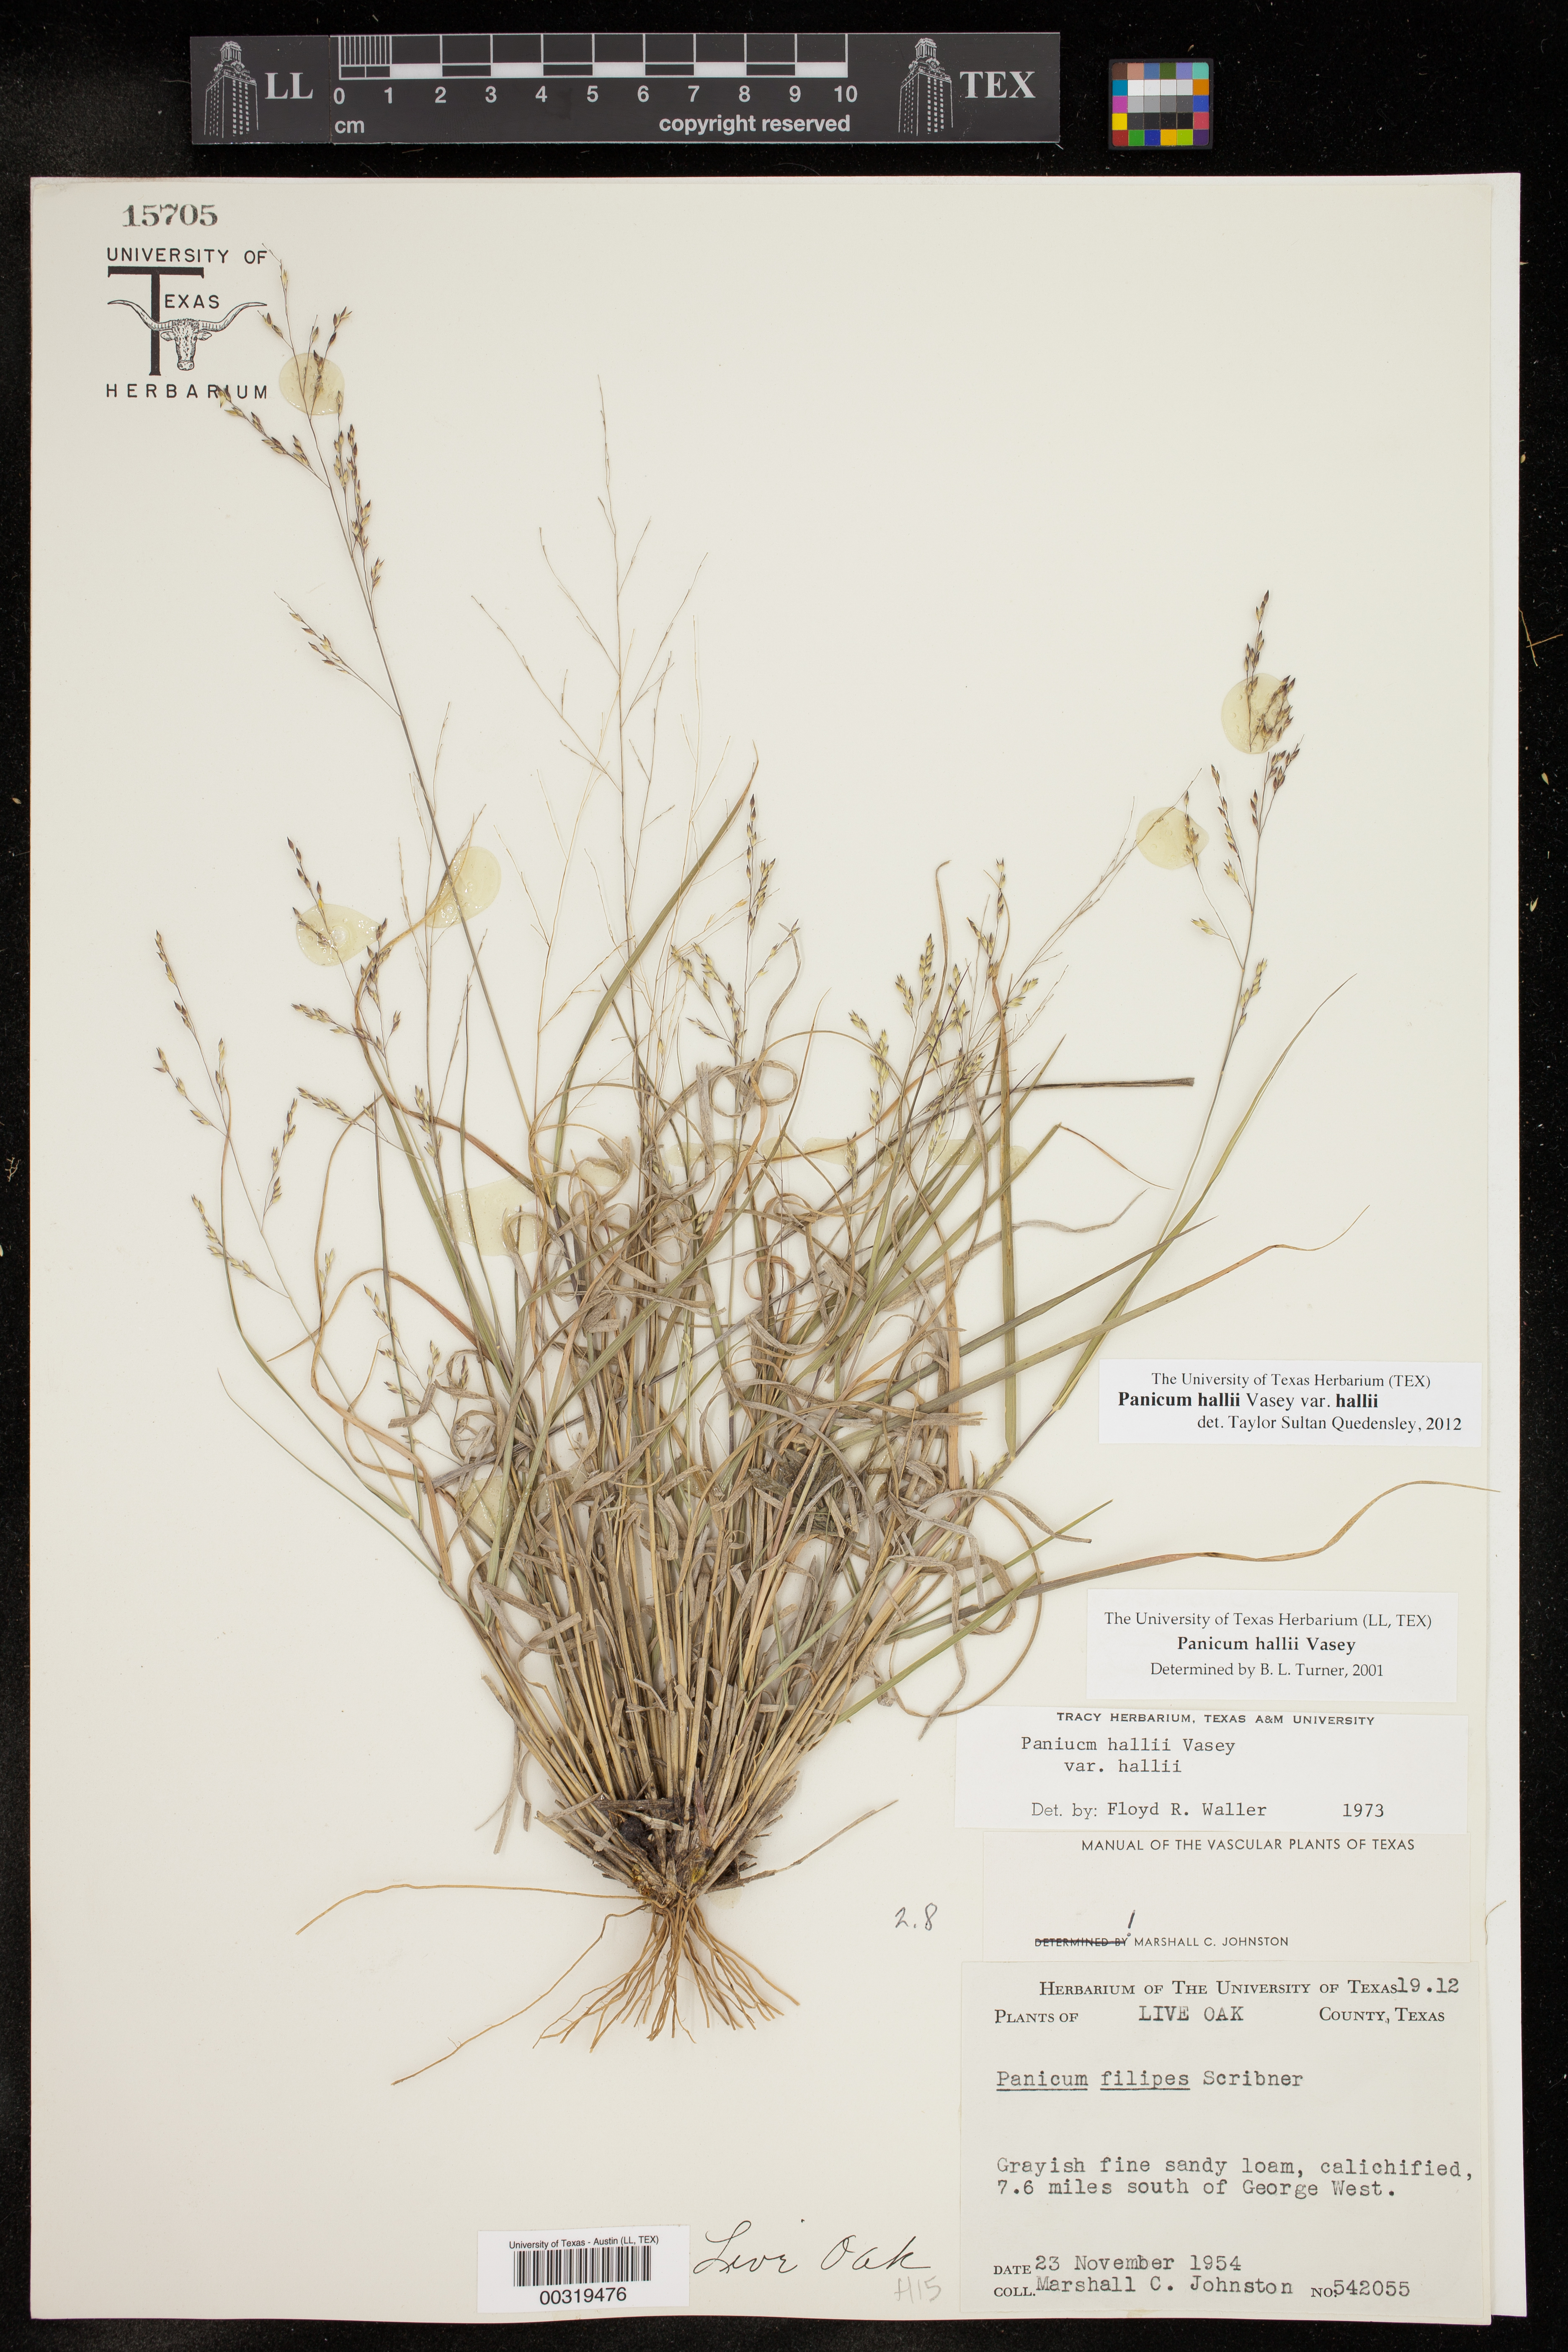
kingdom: Plantae
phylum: Tracheophyta
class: Liliopsida
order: Poales
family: Poaceae
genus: Panicum
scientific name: Panicum hallii
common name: Hall's witchgrass
